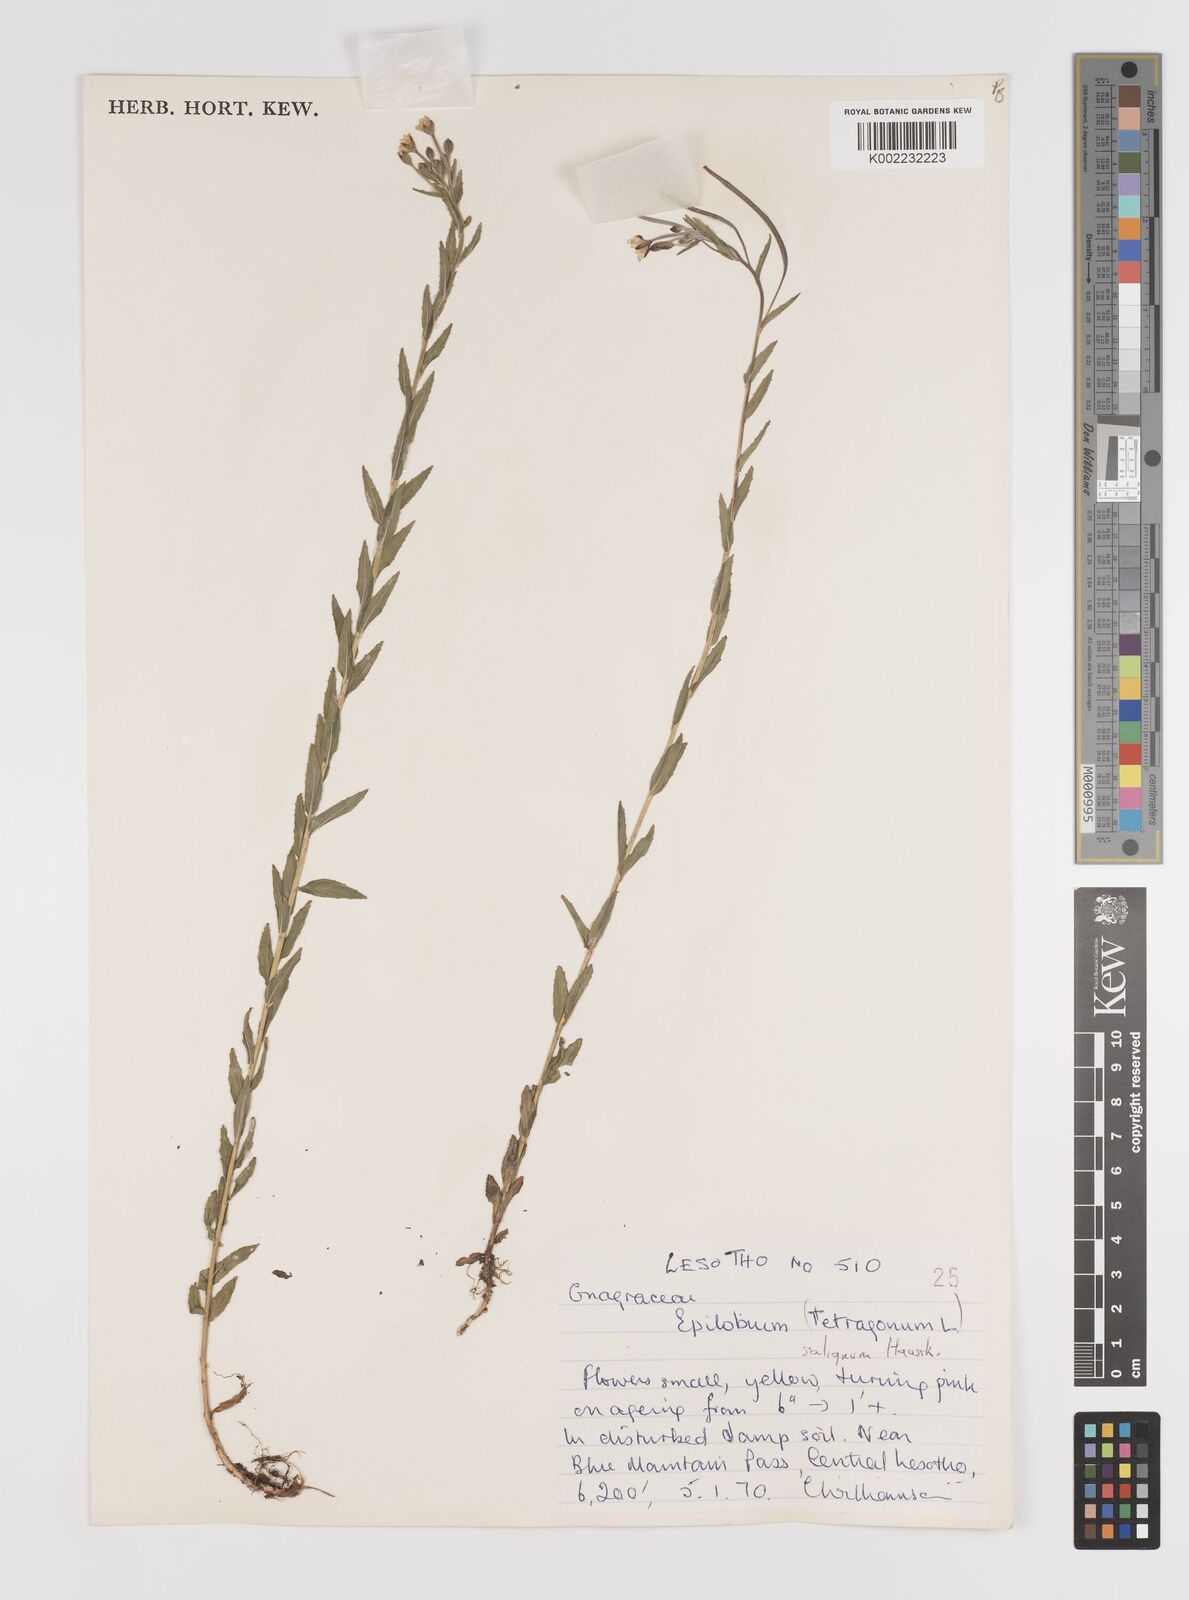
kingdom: Plantae
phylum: Tracheophyta
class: Magnoliopsida
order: Myrtales
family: Onagraceae
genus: Epilobium
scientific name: Epilobium salignum
